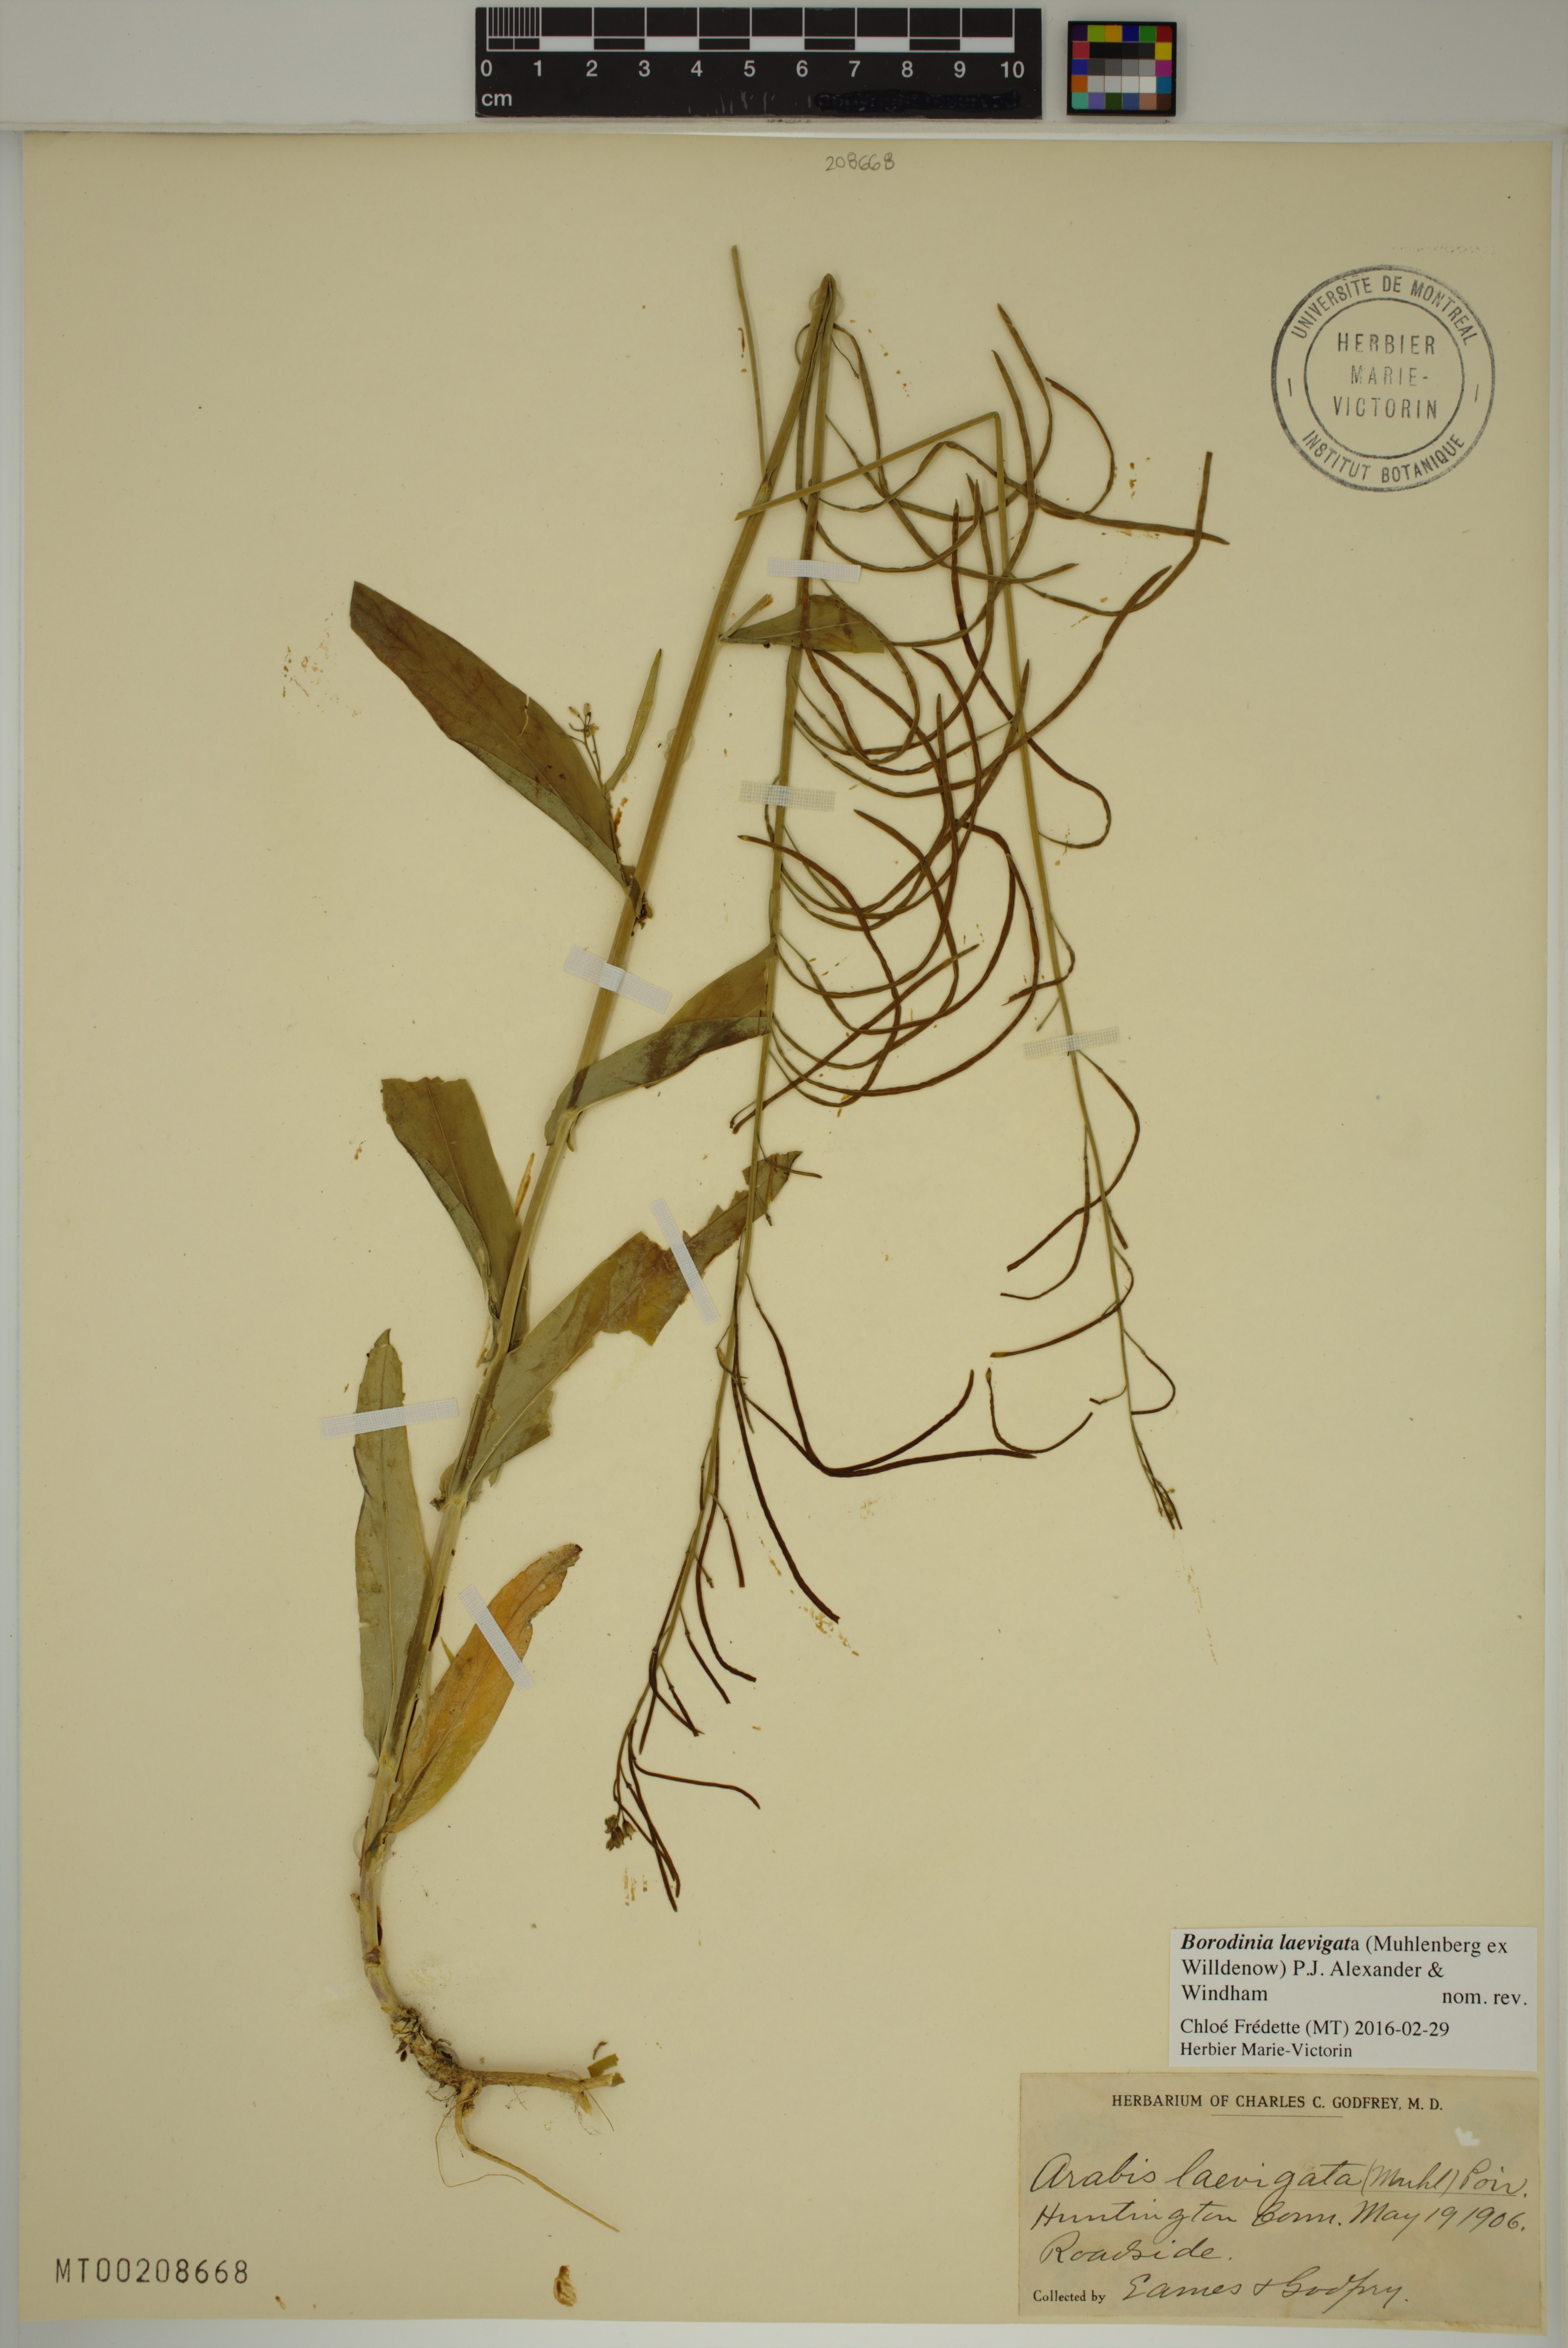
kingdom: Plantae
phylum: Tracheophyta
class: Magnoliopsida
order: Brassicales
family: Brassicaceae
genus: Borodinia
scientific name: Borodinia laevigata
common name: Smooth rockcress
